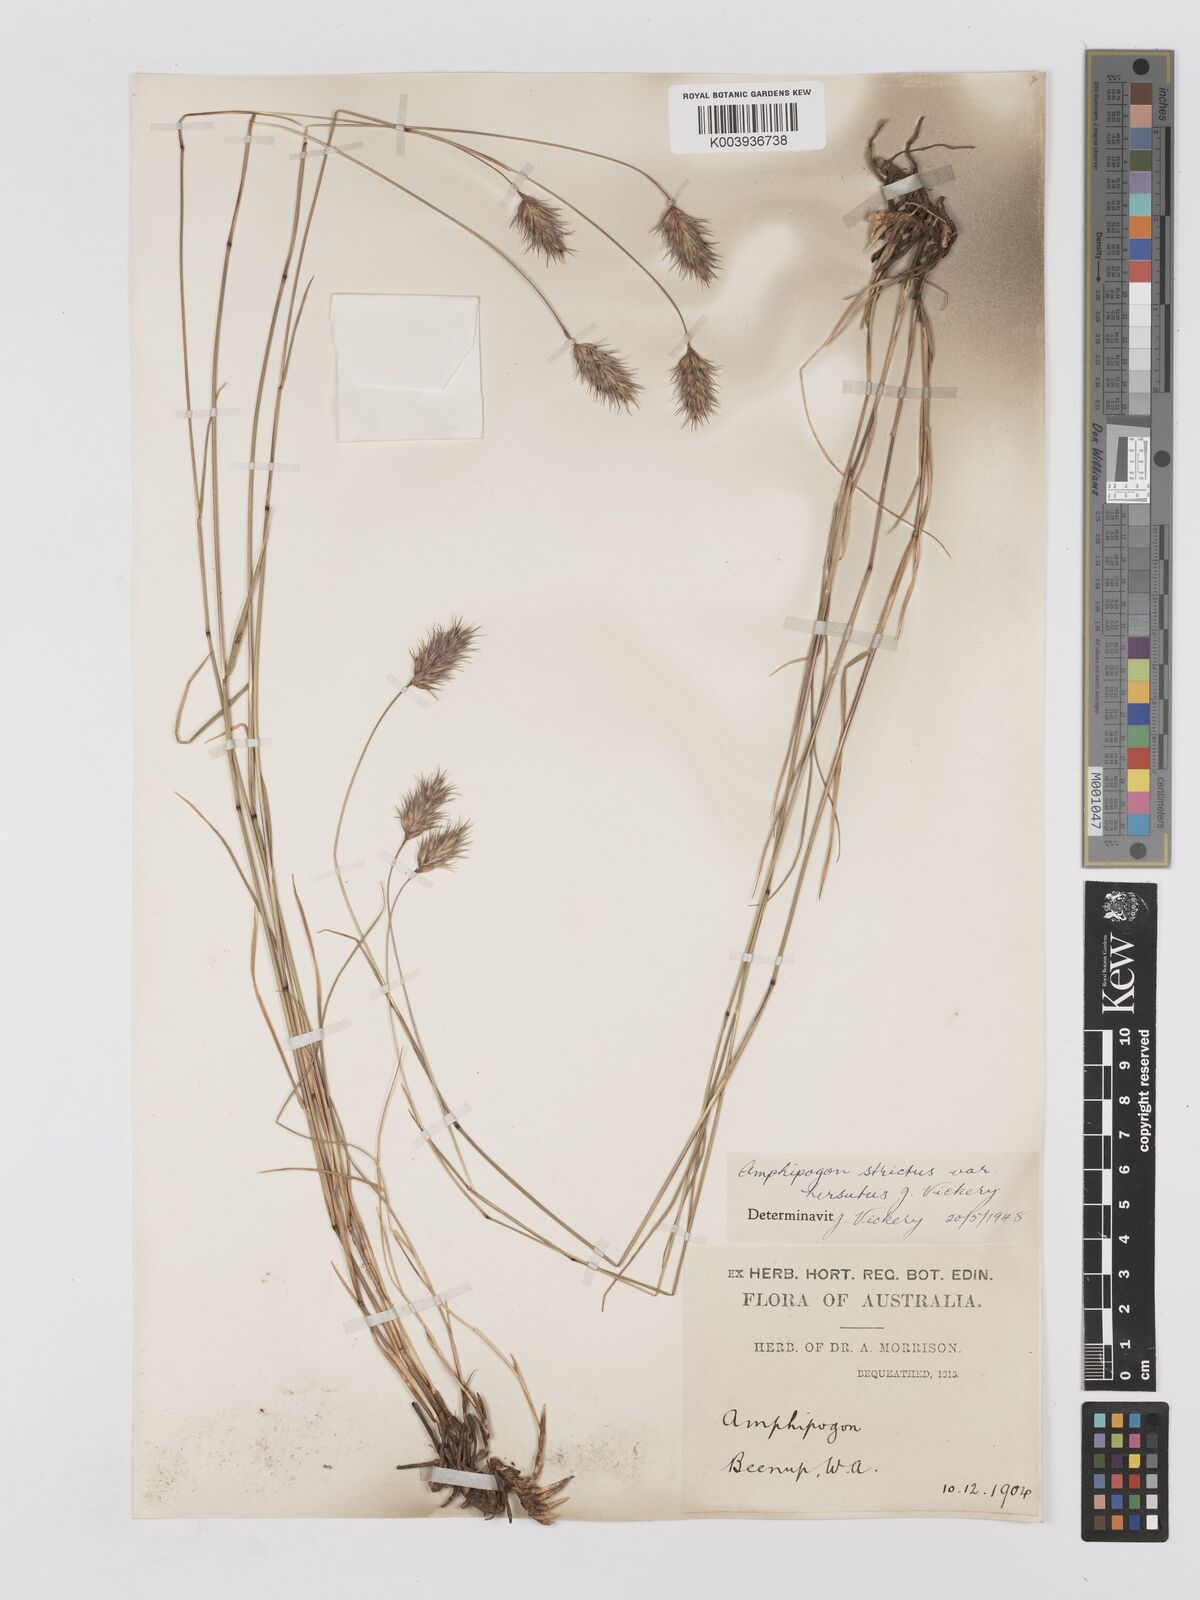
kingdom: Plantae
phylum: Tracheophyta
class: Liliopsida
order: Poales
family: Poaceae
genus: Amphipogon
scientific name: Amphipogon strictus
